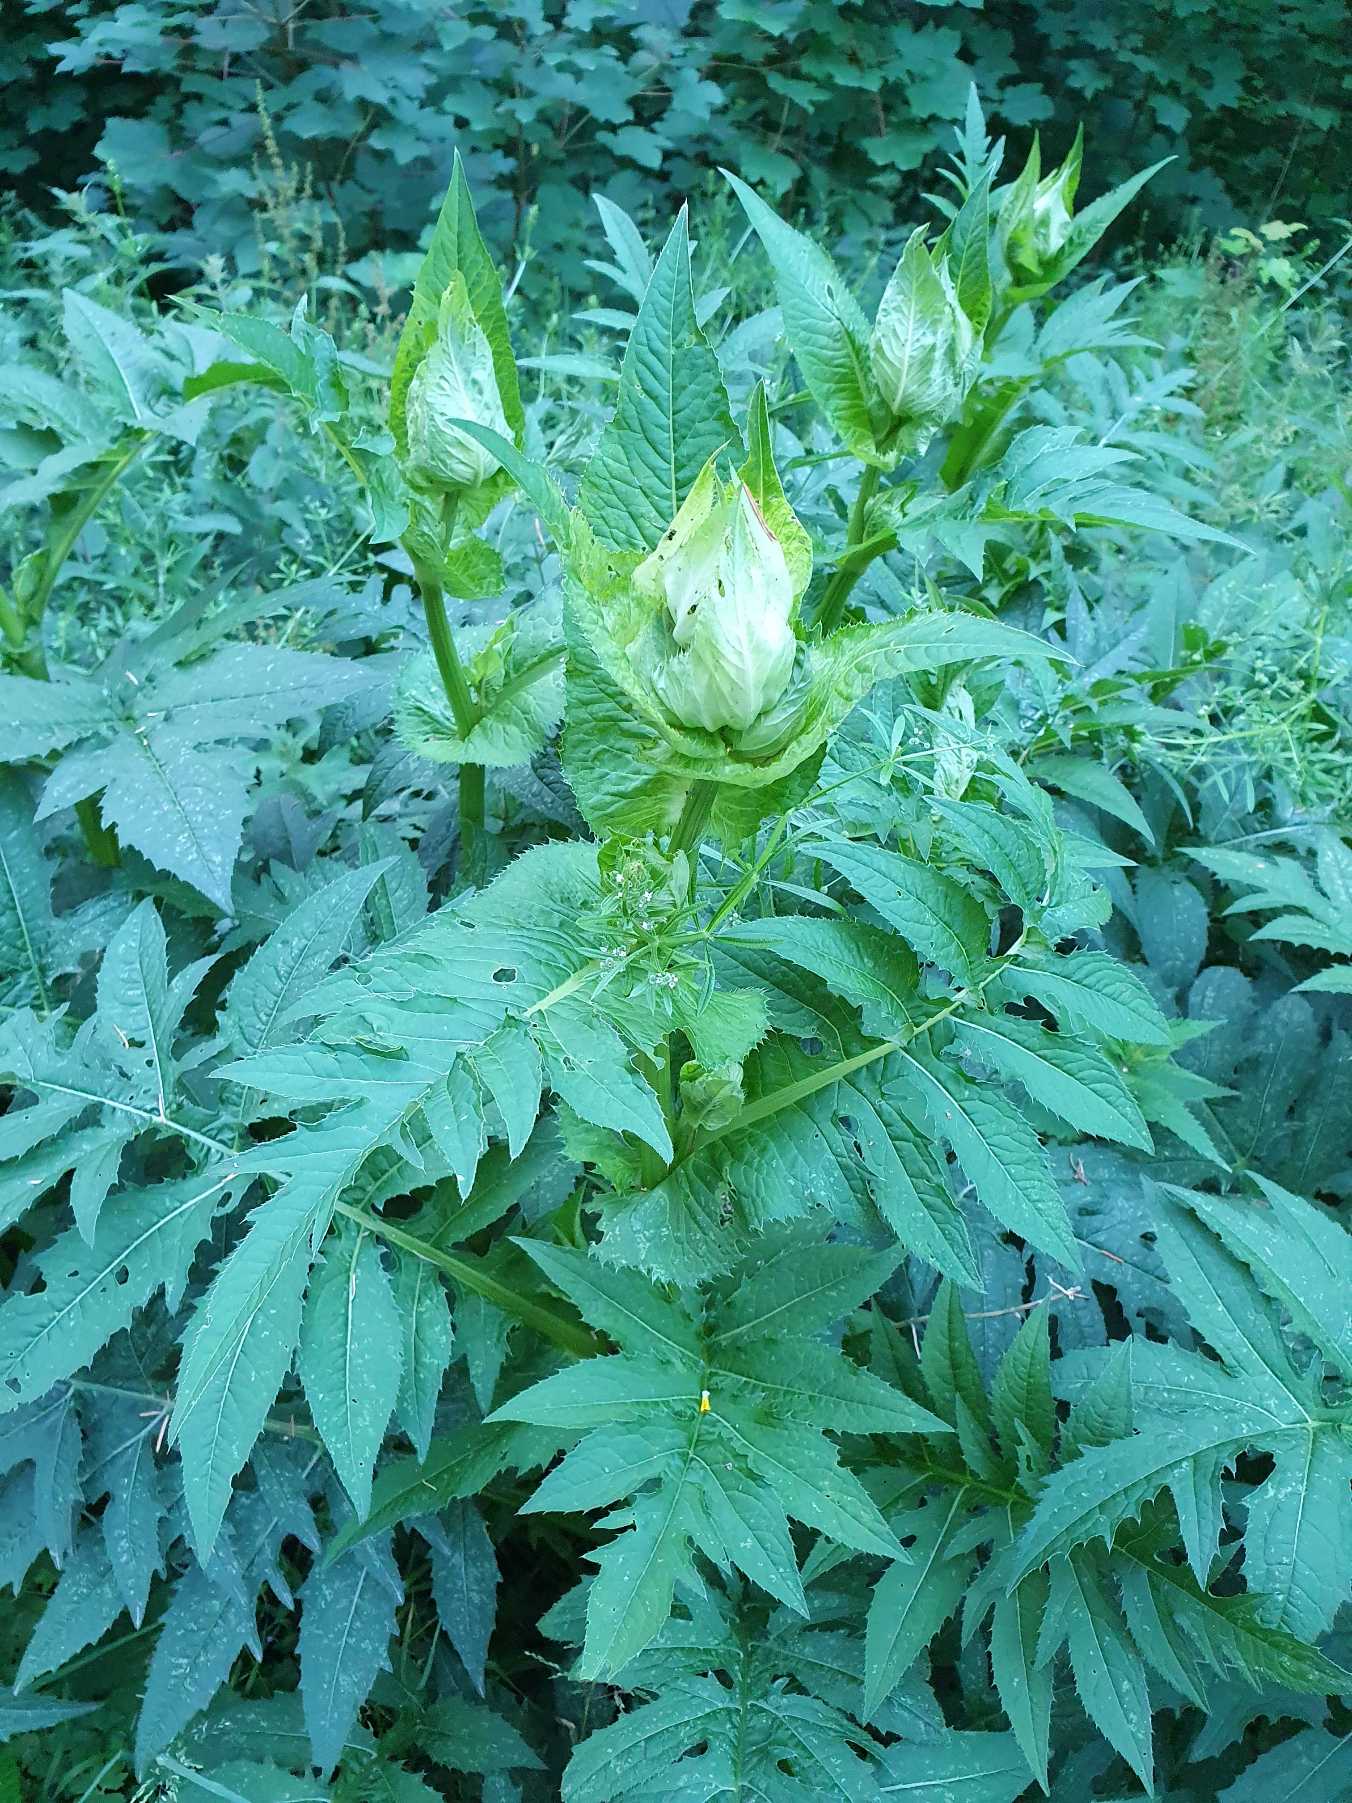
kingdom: Plantae
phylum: Tracheophyta
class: Magnoliopsida
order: Asterales
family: Asteraceae
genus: Cirsium
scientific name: Cirsium oleraceum
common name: Kål-tidsel
